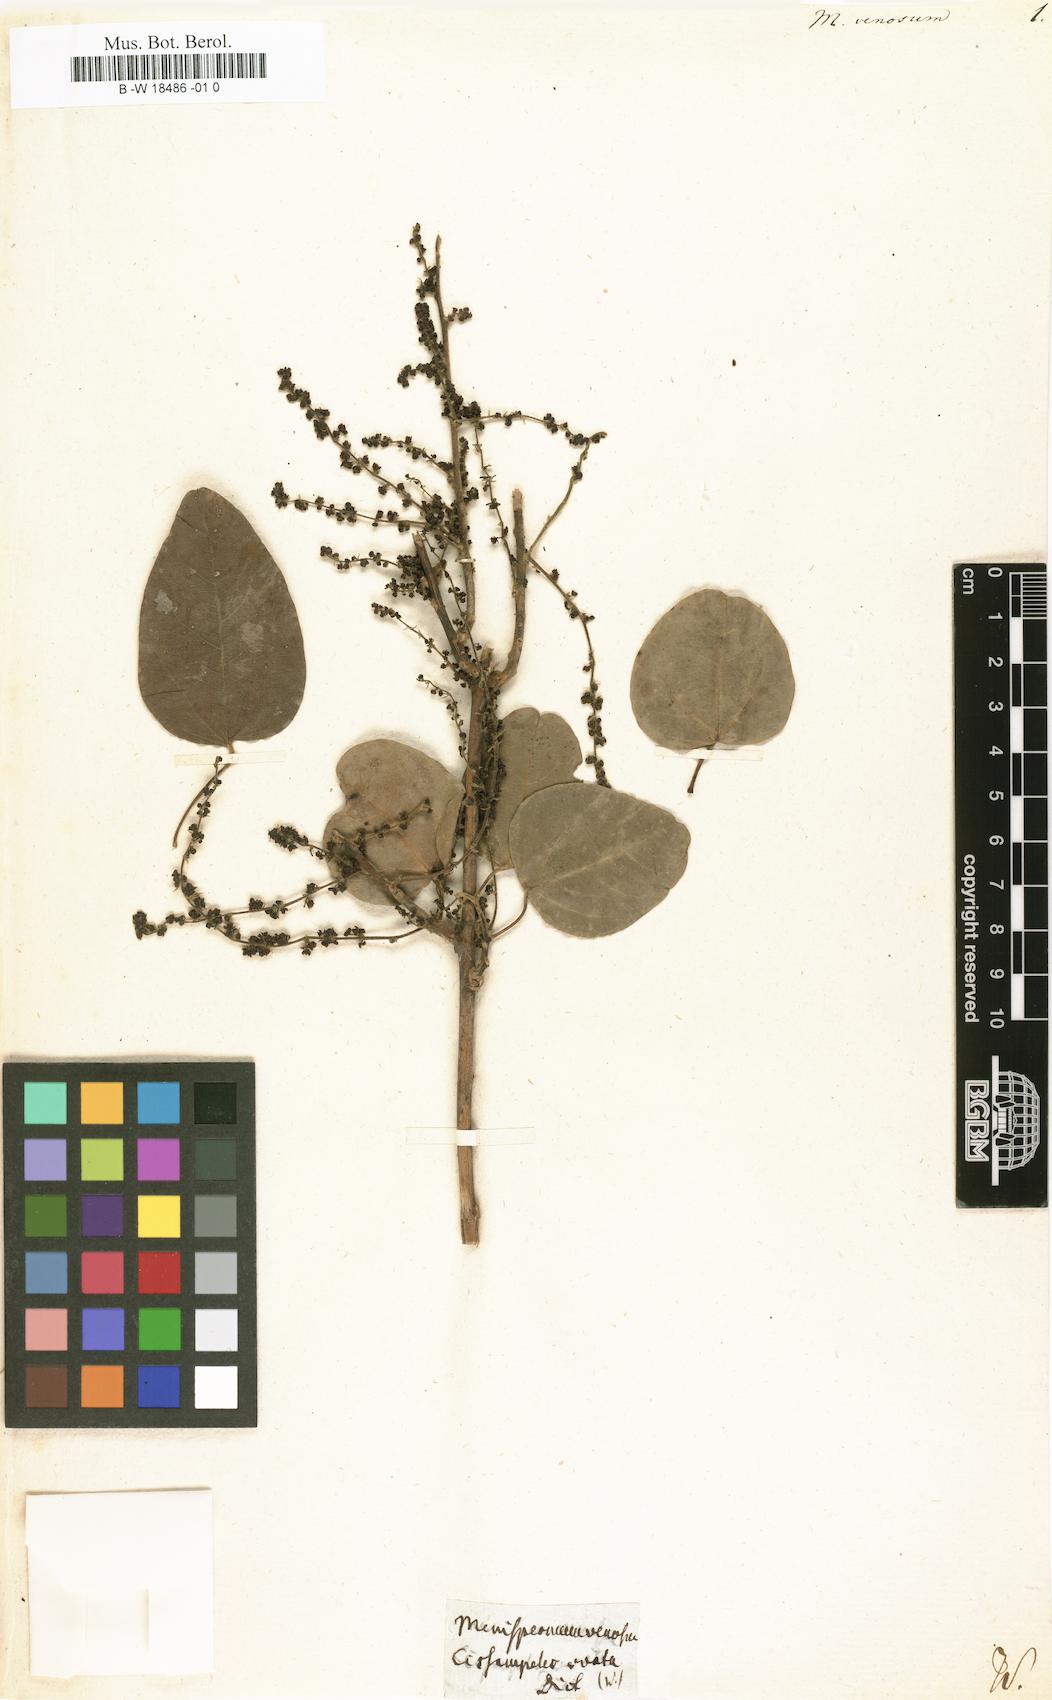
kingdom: Plantae
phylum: Tracheophyta
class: Magnoliopsida
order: Ranunculales
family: Menispermaceae
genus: Menispermum
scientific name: Menispermum
